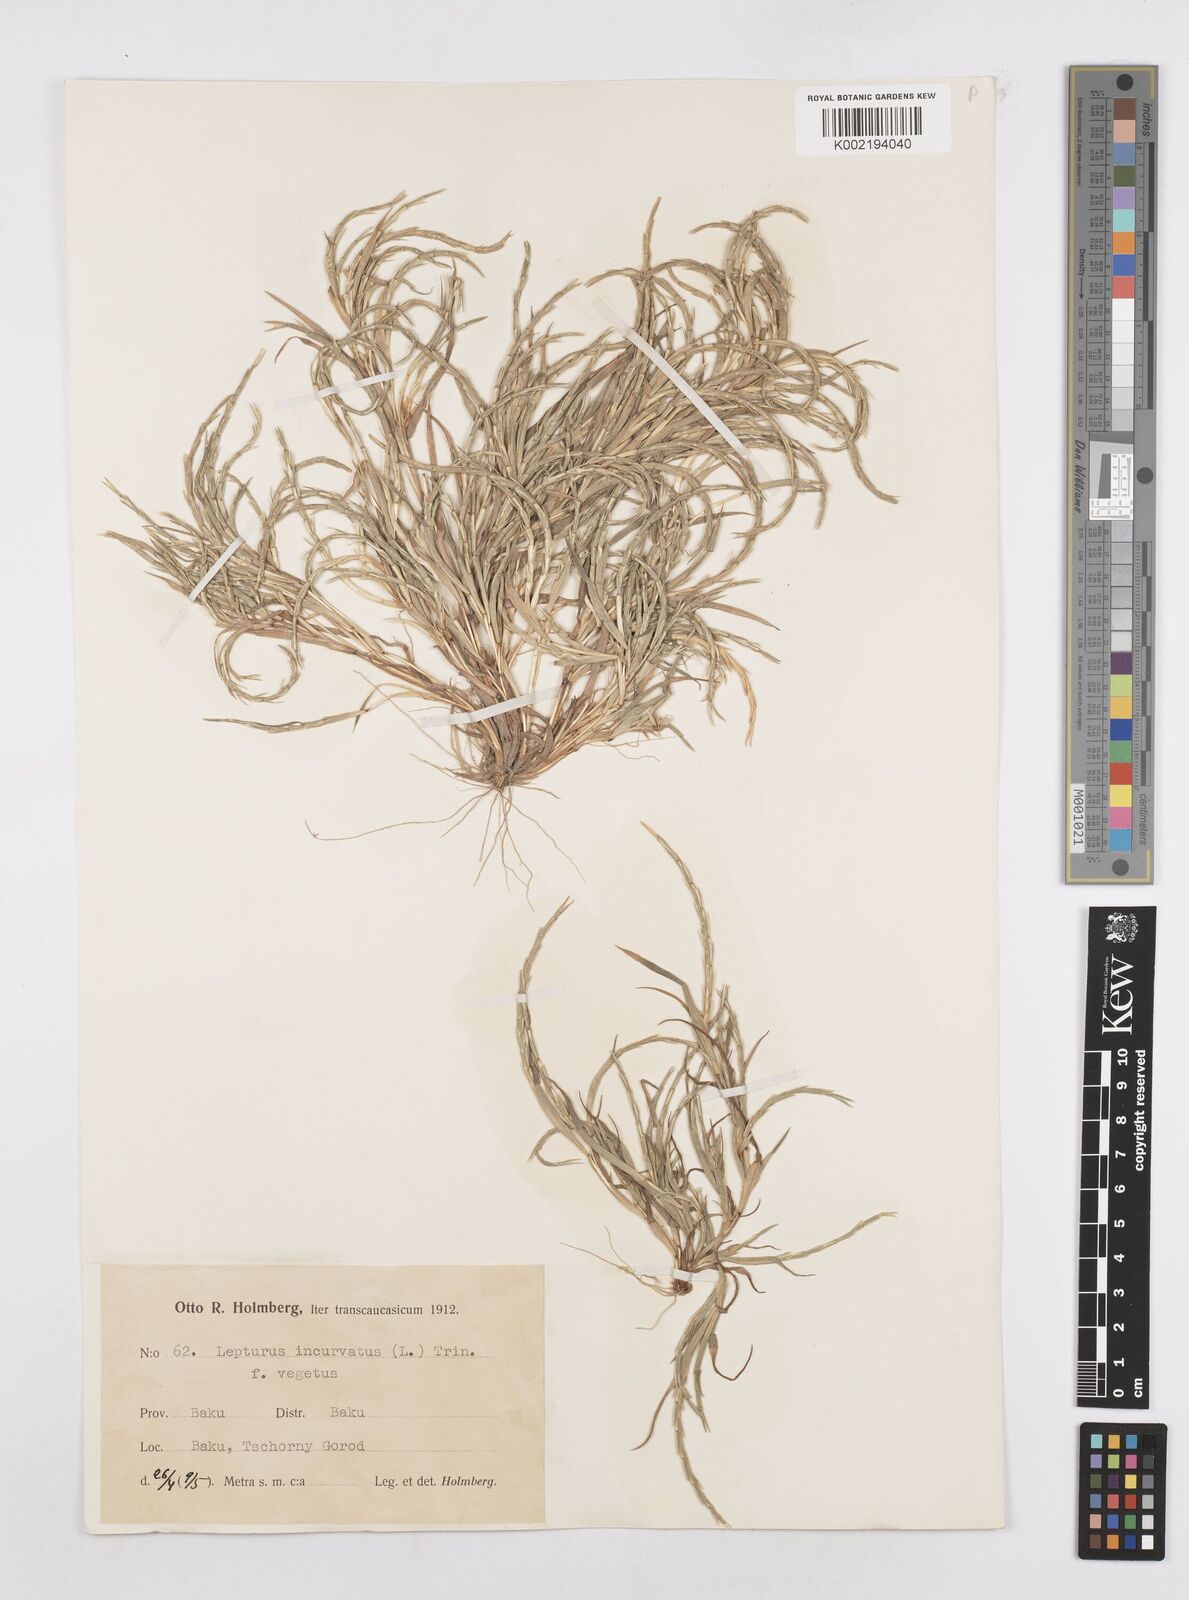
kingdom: Plantae
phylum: Tracheophyta
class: Liliopsida
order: Poales
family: Poaceae
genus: Parapholis
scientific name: Parapholis incurva
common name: Curved sicklegrass
